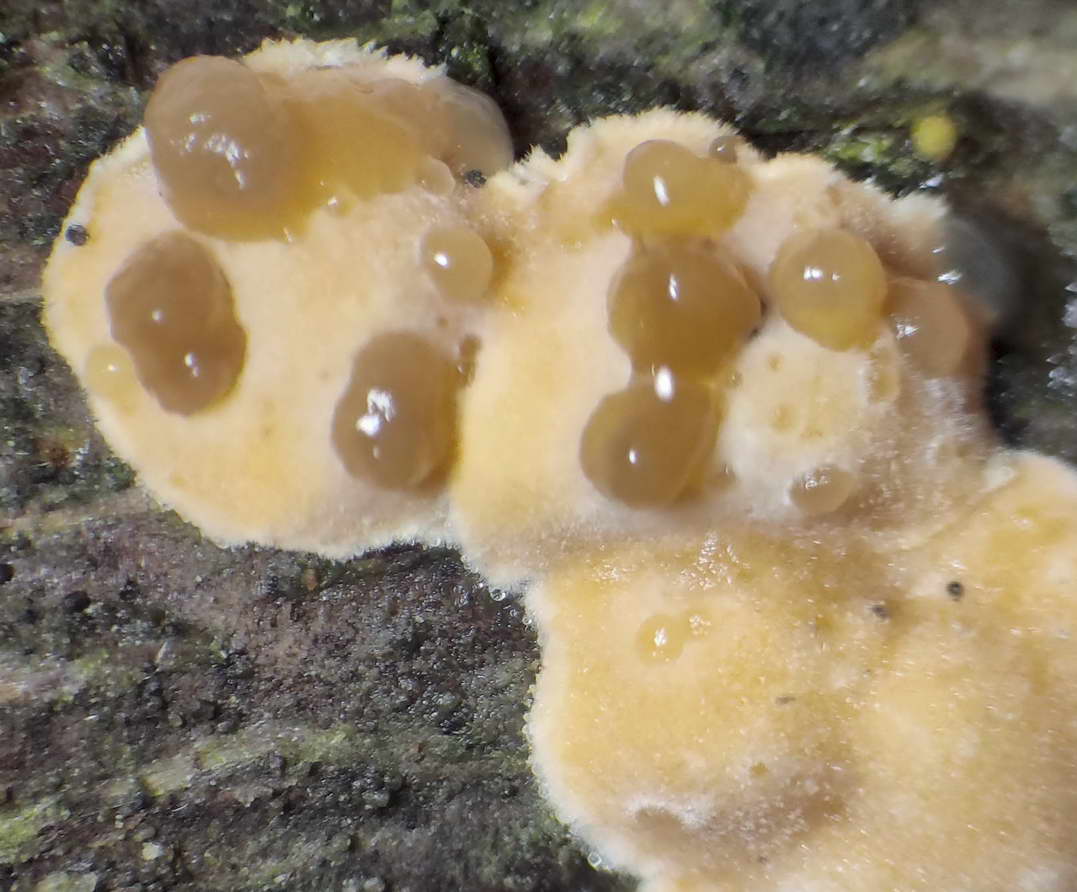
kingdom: Fungi
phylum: Basidiomycota
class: Tremellomycetes
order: Tremellales
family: Tremellaceae
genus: Phaeotremella
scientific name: Phaeotremella simplex
